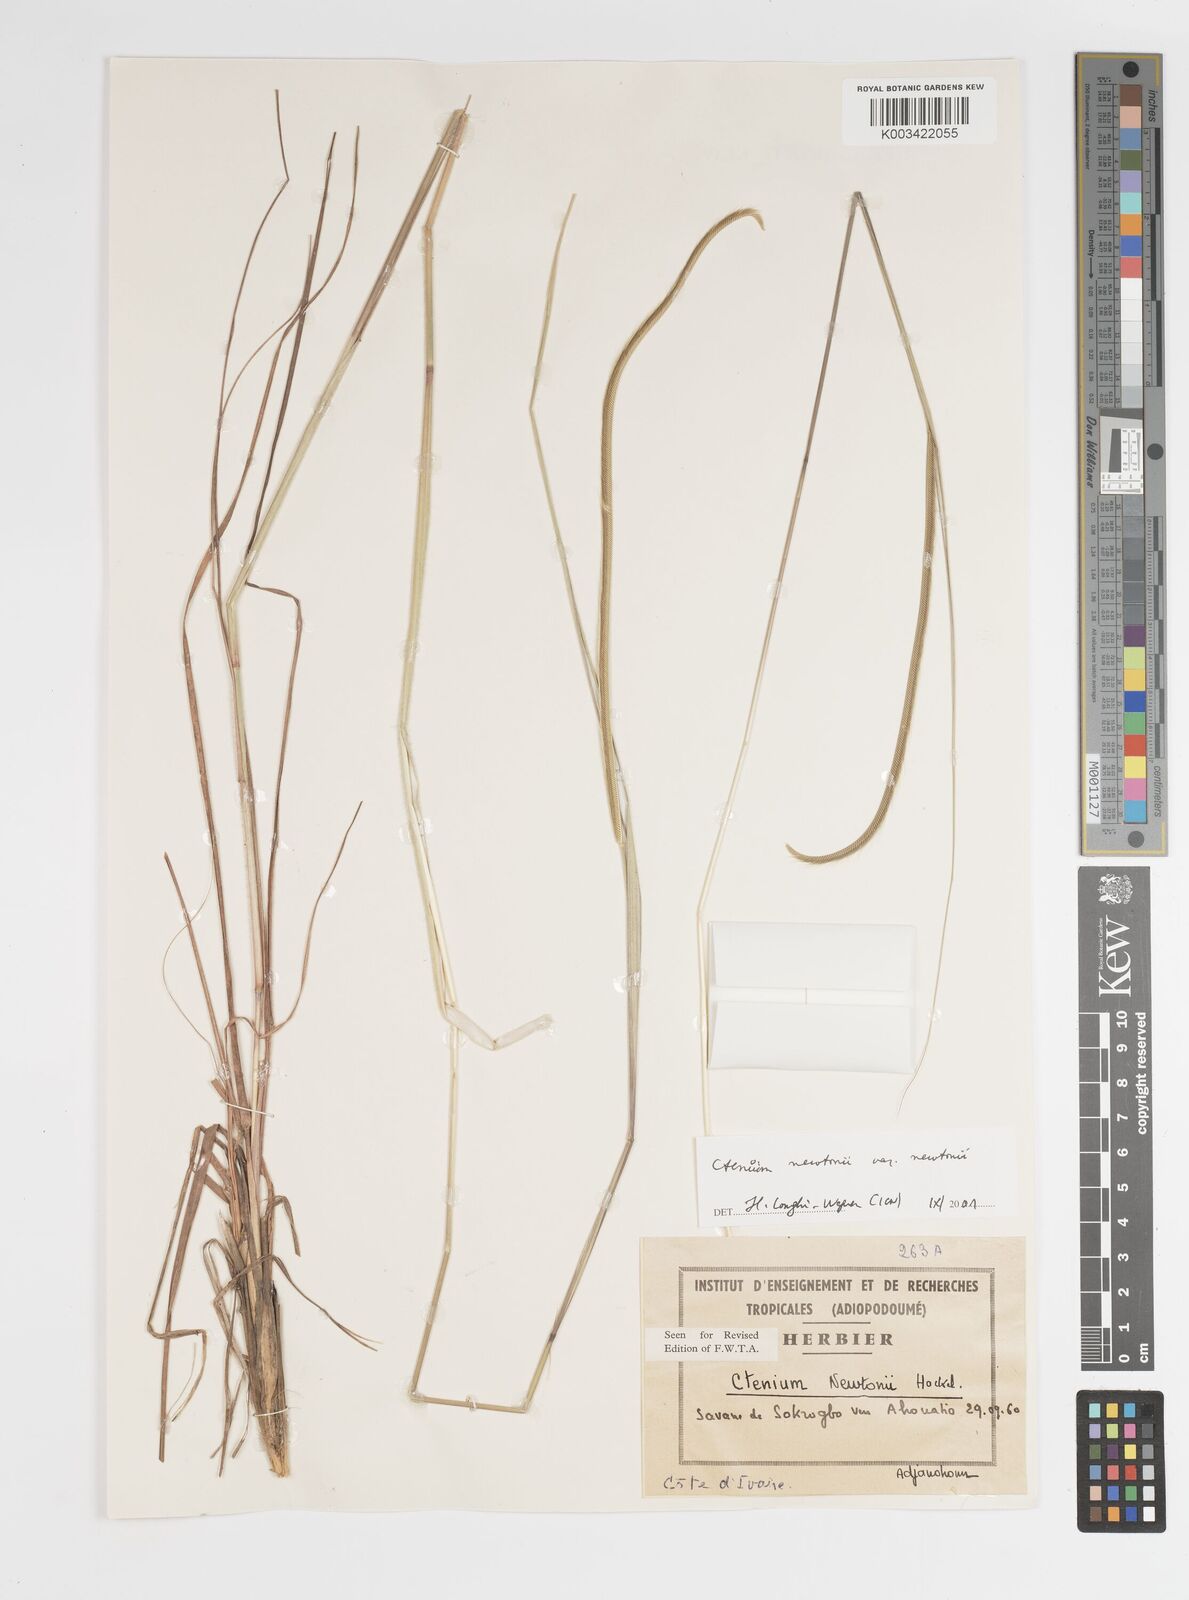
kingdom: Plantae
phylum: Tracheophyta
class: Liliopsida
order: Poales
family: Poaceae
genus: Ctenium
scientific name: Ctenium newtonii
